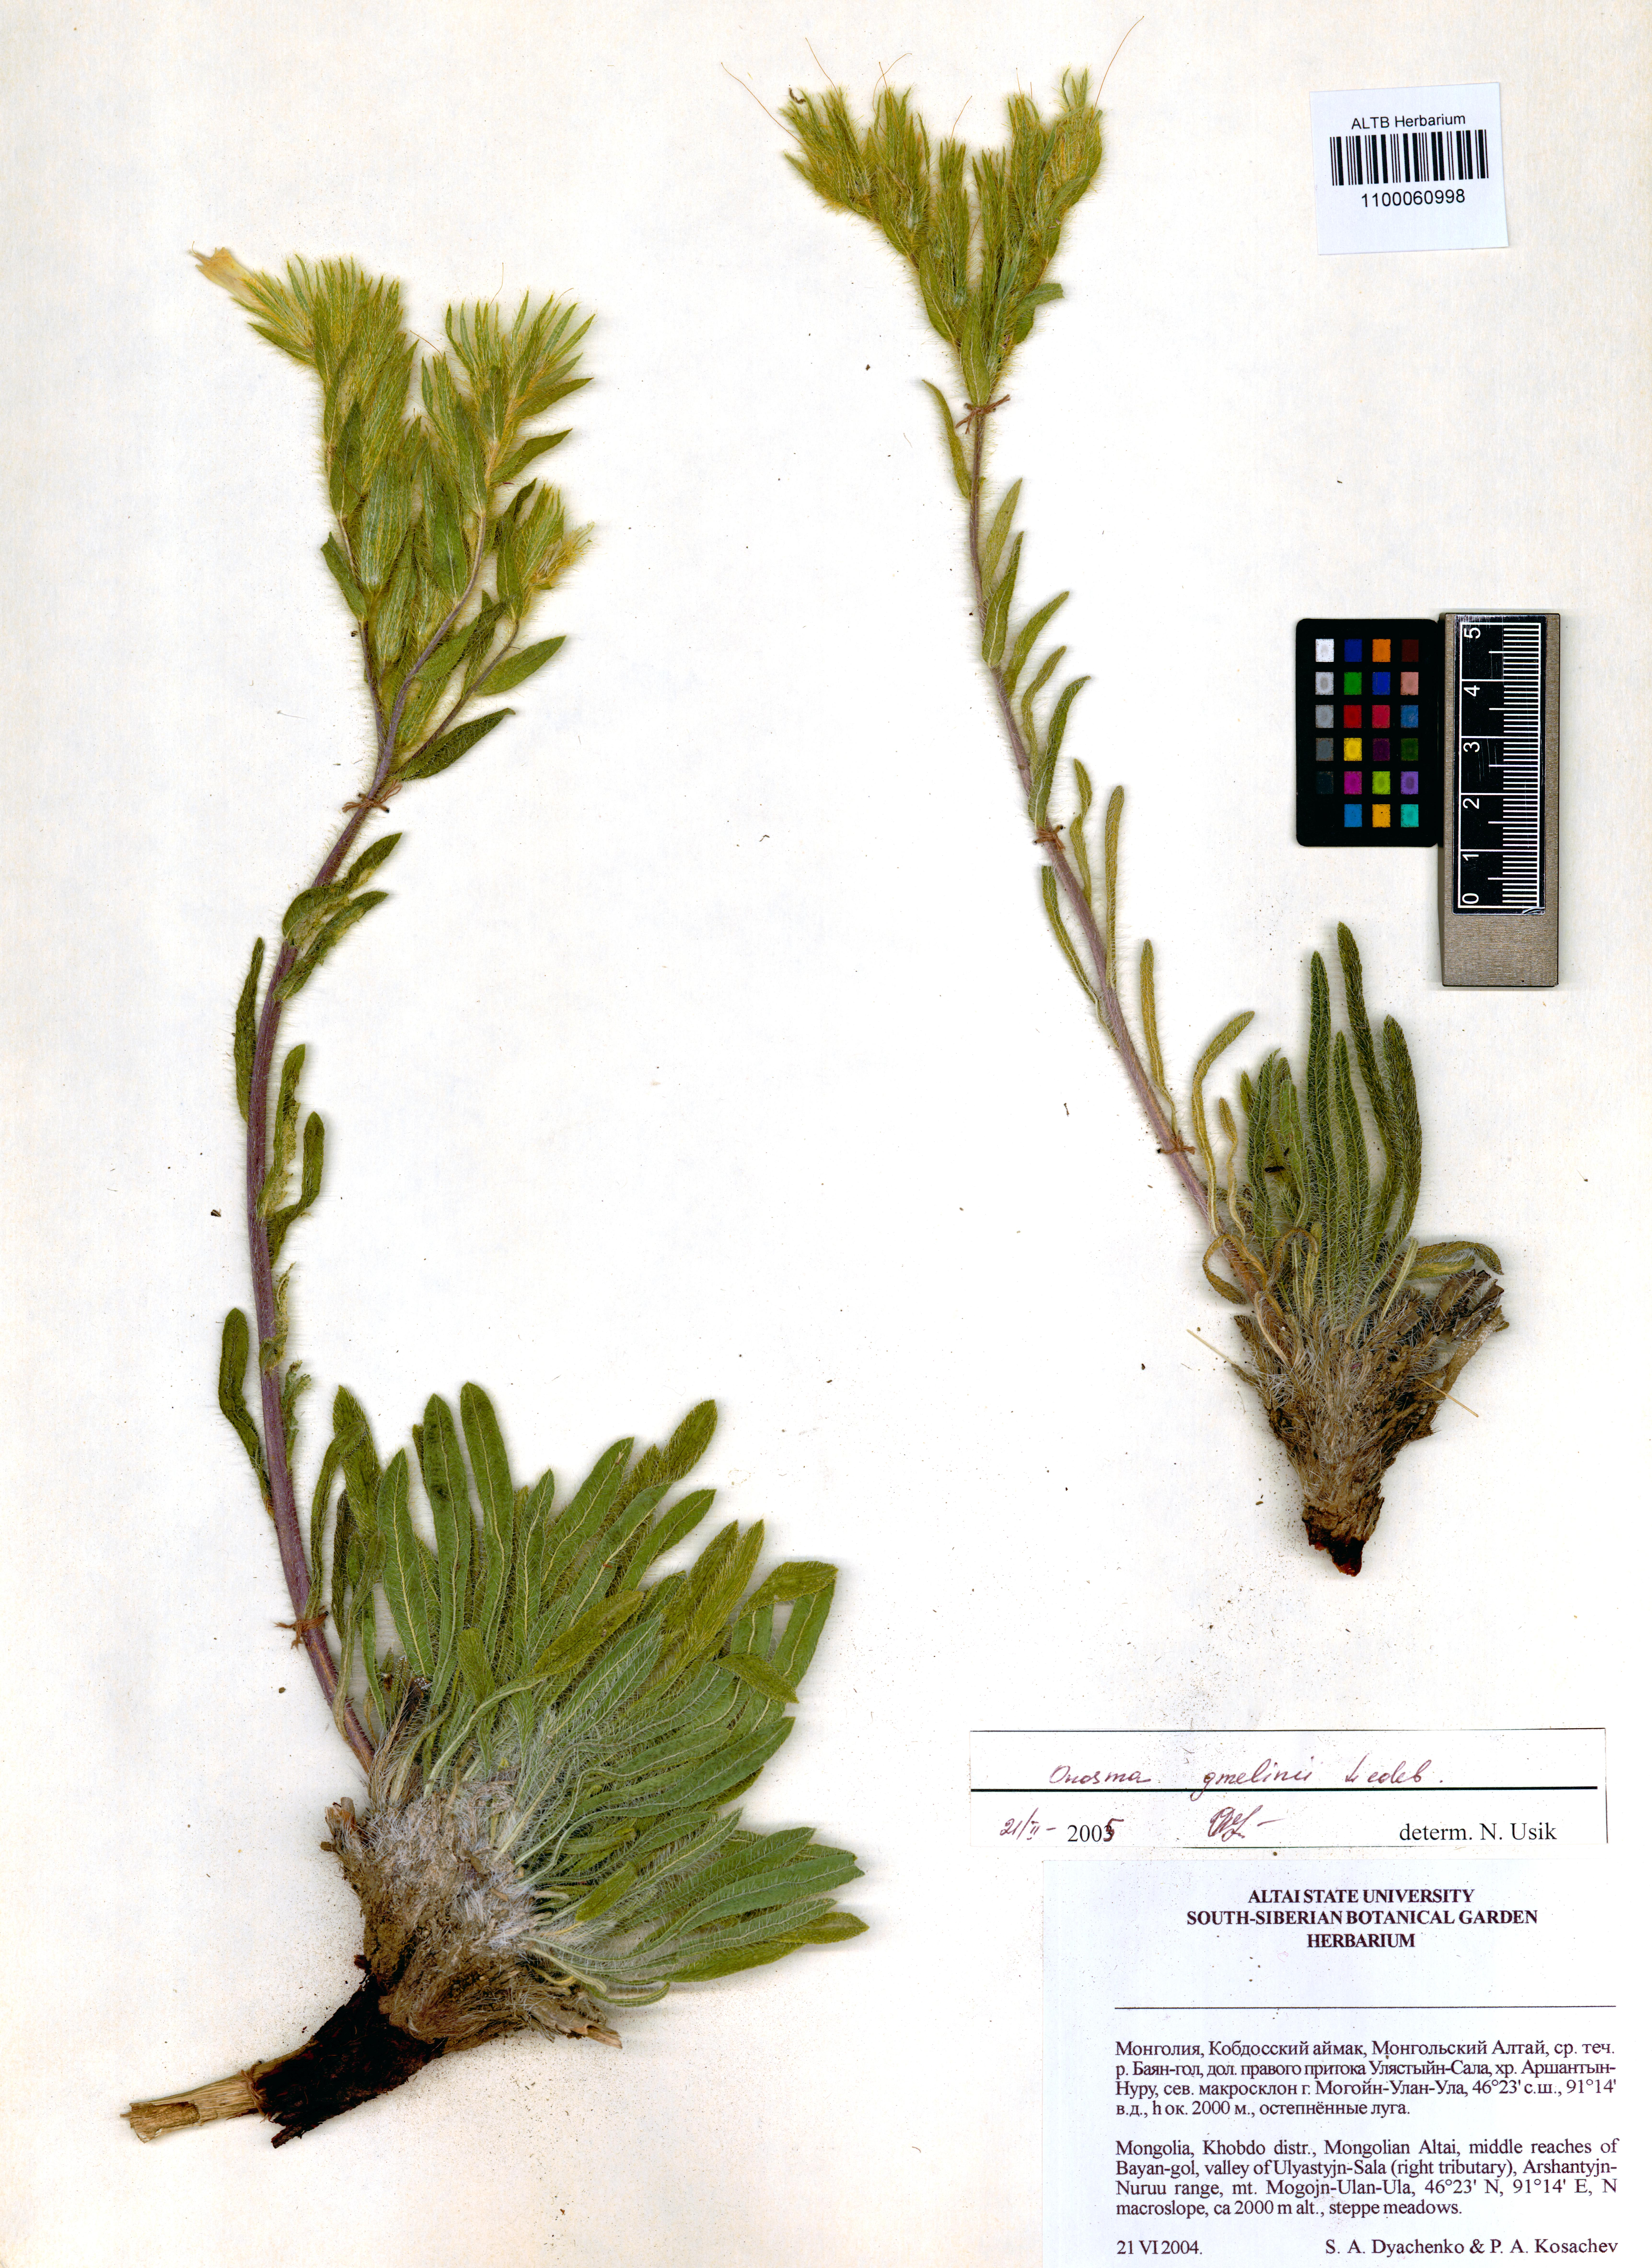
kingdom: Plantae
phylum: Tracheophyta
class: Magnoliopsida
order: Boraginales
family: Boraginaceae
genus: Onosma
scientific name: Onosma gmelinii
